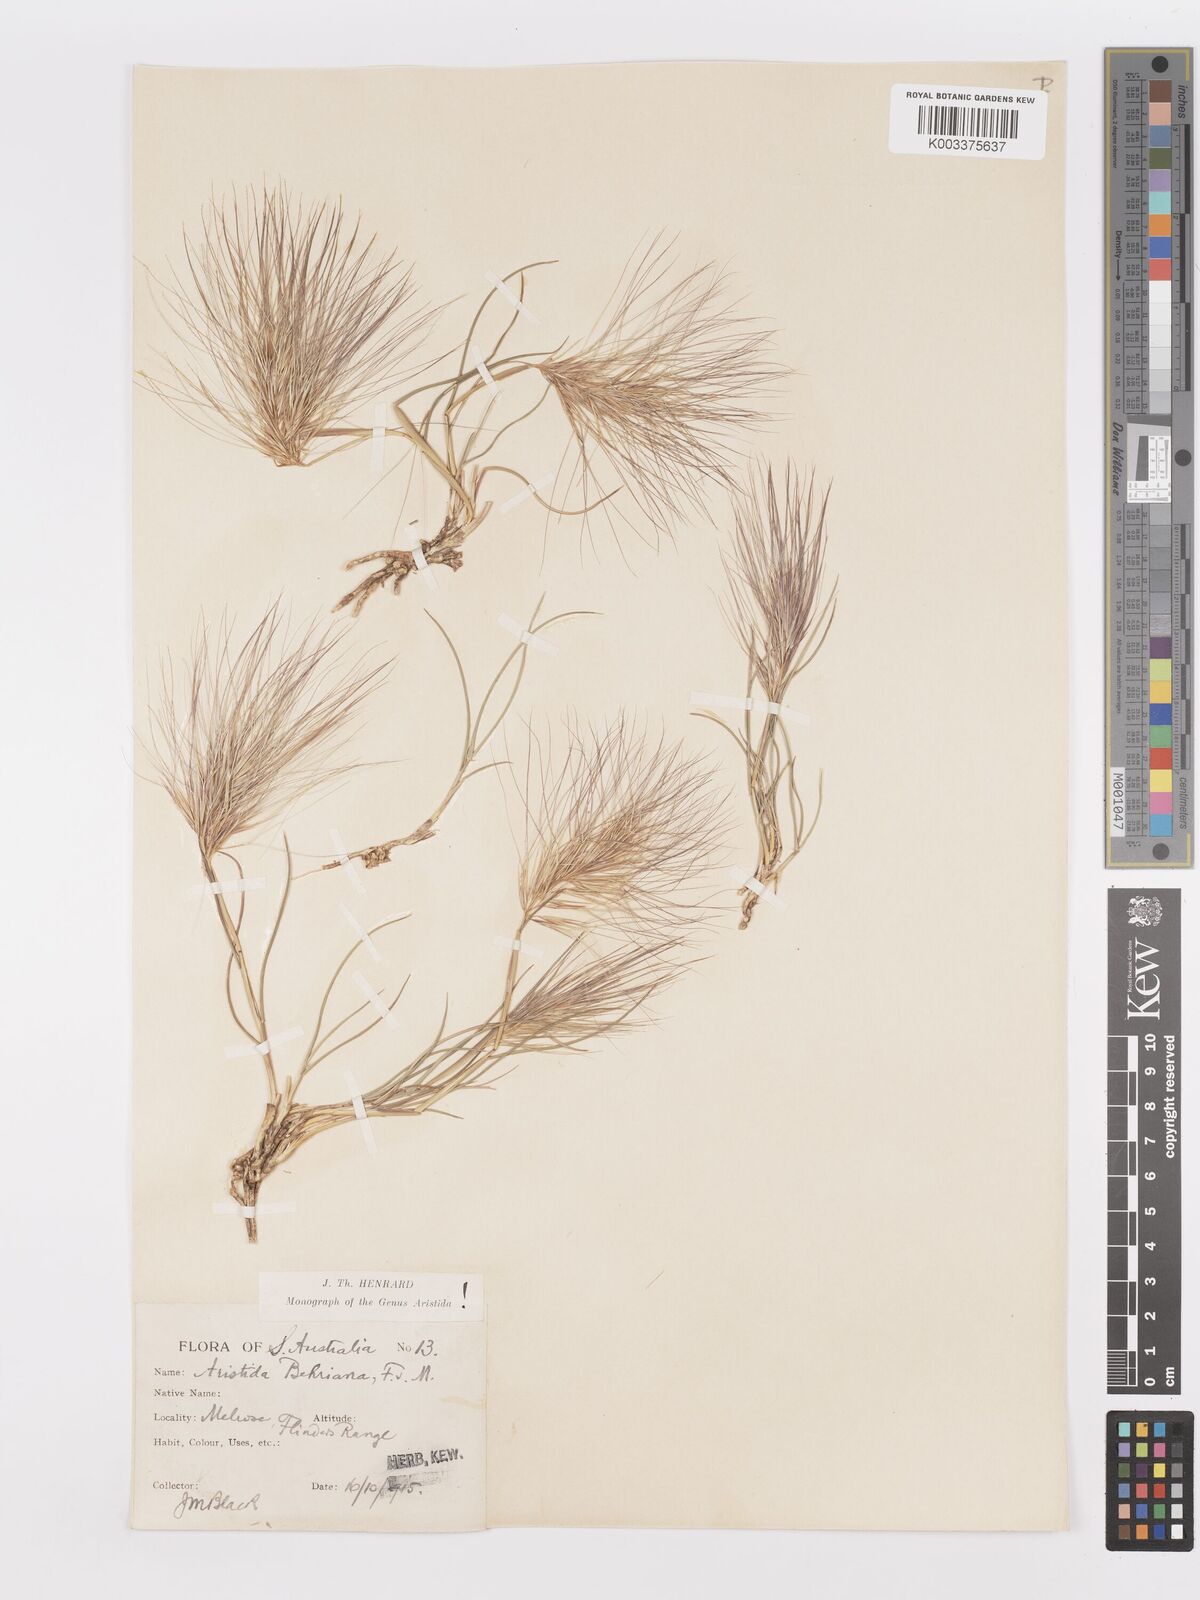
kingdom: Plantae
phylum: Tracheophyta
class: Liliopsida
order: Poales
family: Poaceae
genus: Aristida
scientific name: Aristida behriana
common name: Long-awn wire grass
